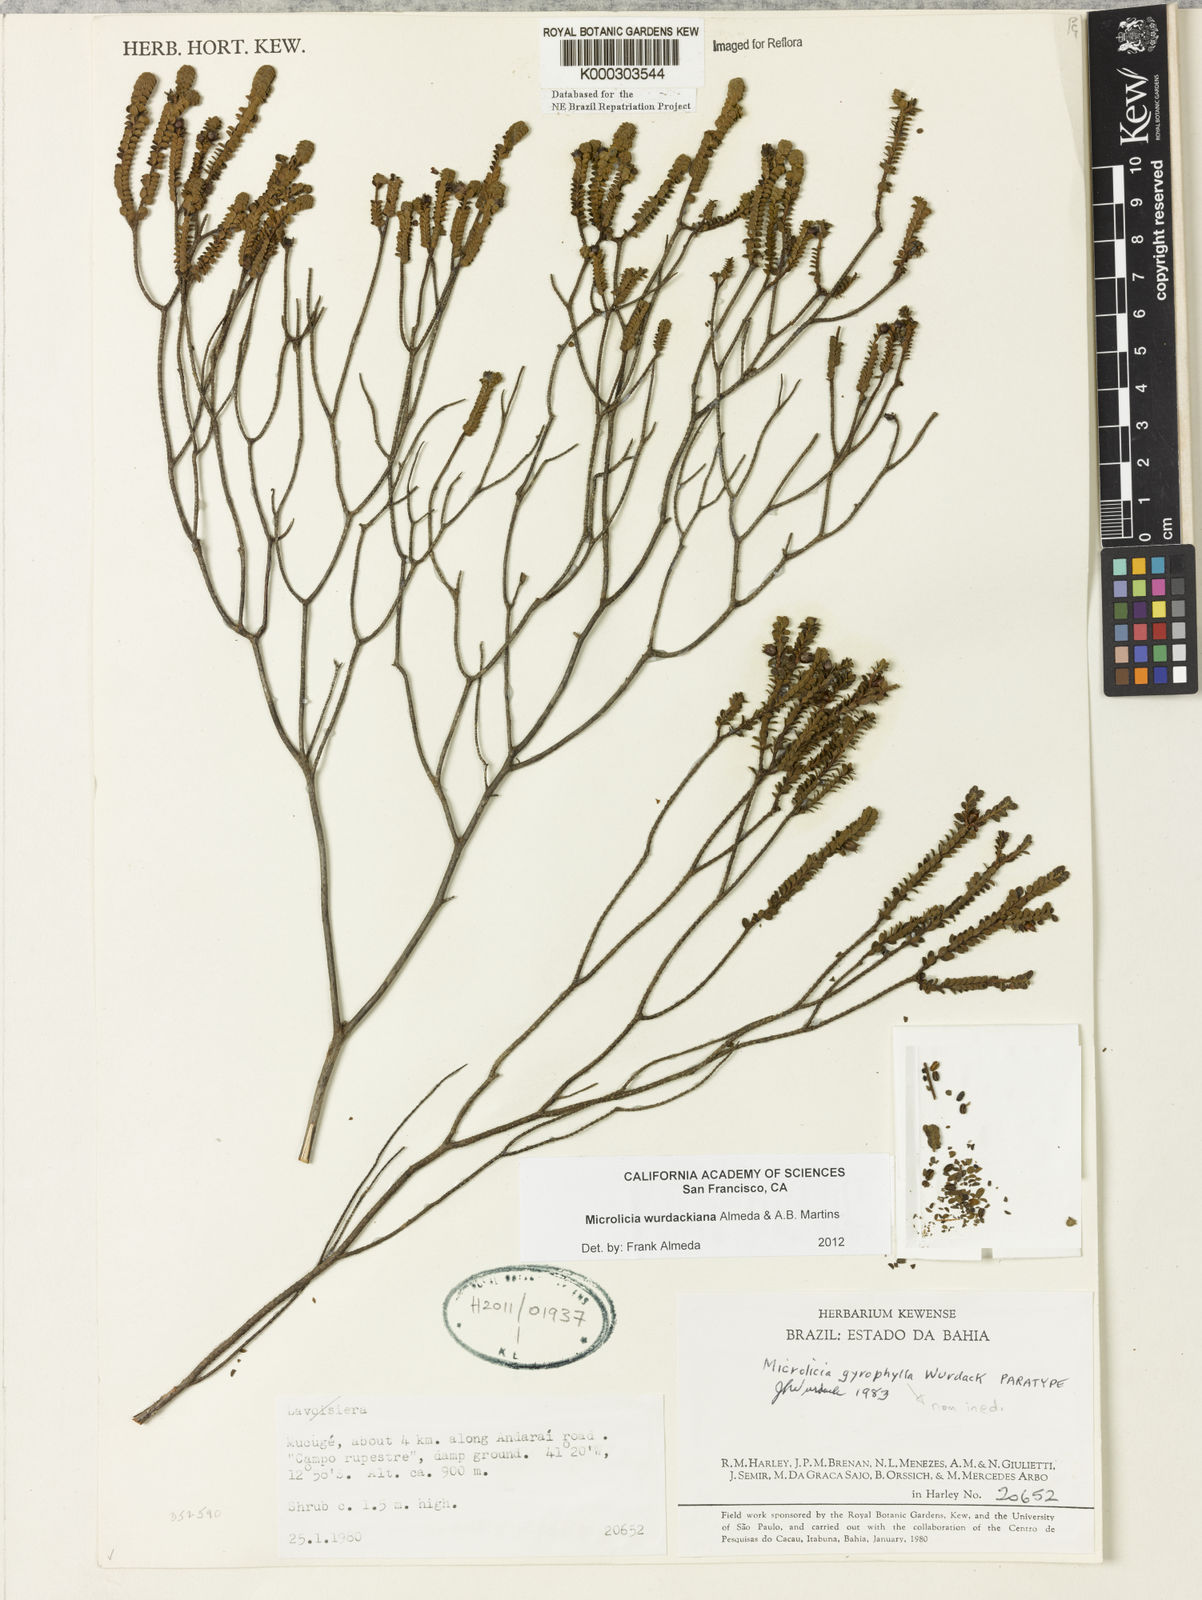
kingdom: Plantae
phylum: Tracheophyta
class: Magnoliopsida
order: Myrtales
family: Melastomataceae
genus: Microlicia
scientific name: Microlicia wurdackiana
